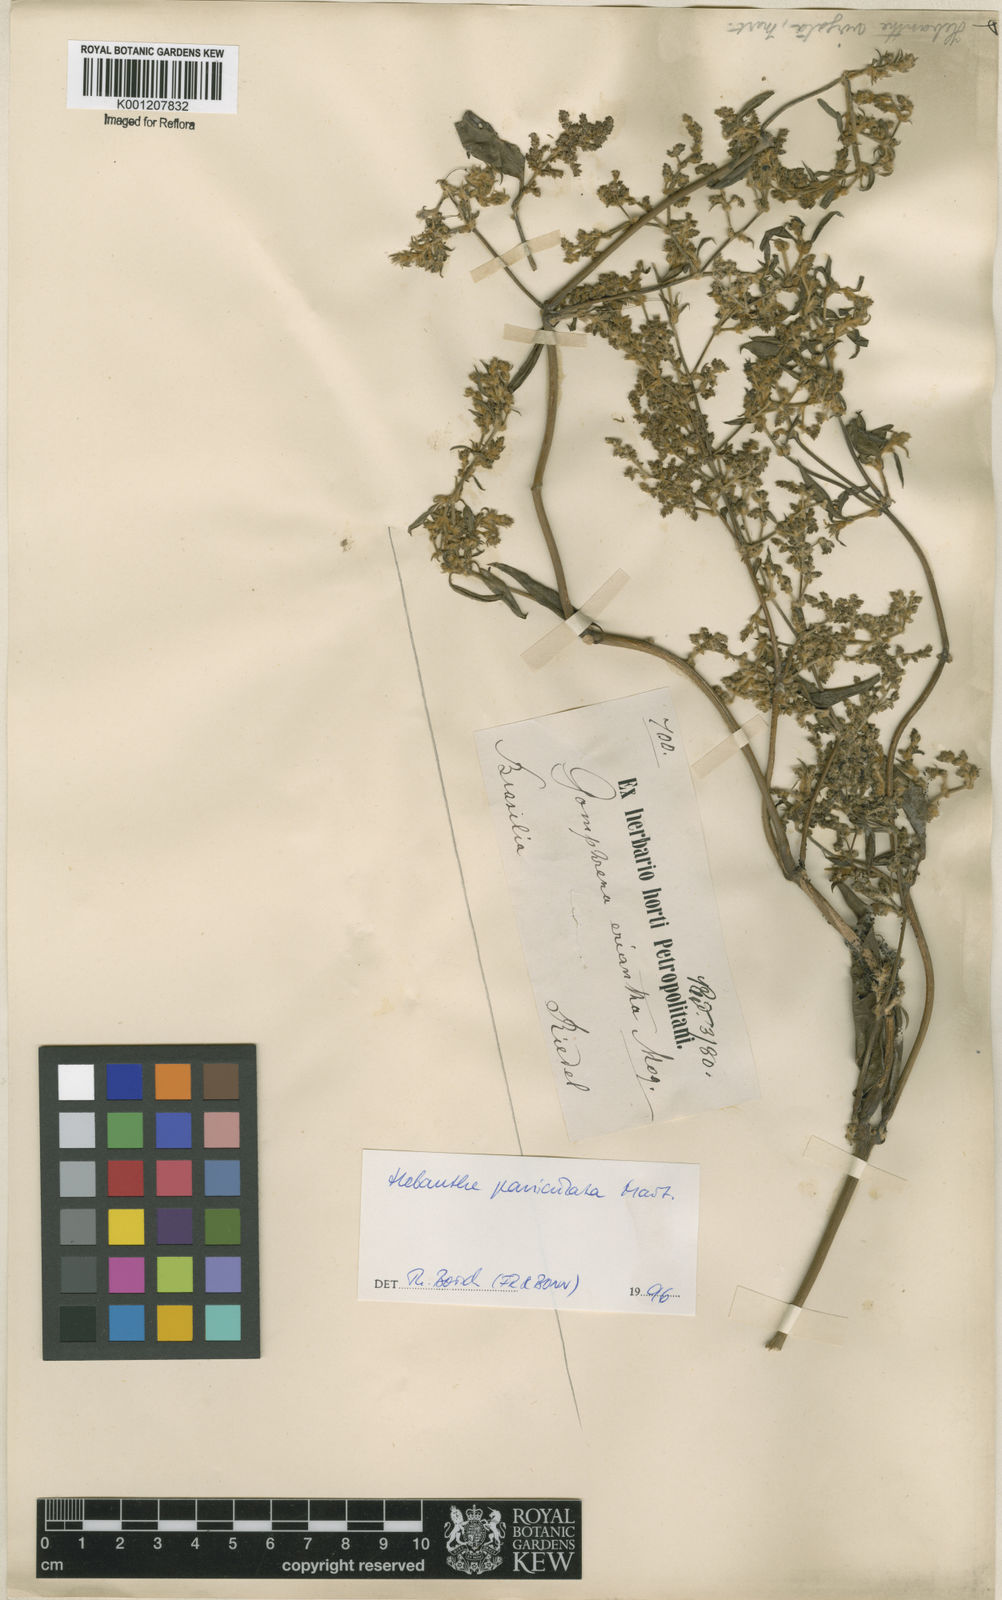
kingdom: Plantae
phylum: Tracheophyta
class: Magnoliopsida
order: Caryophyllales
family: Amaranthaceae
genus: Hebanthe
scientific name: Hebanthe erianthos
